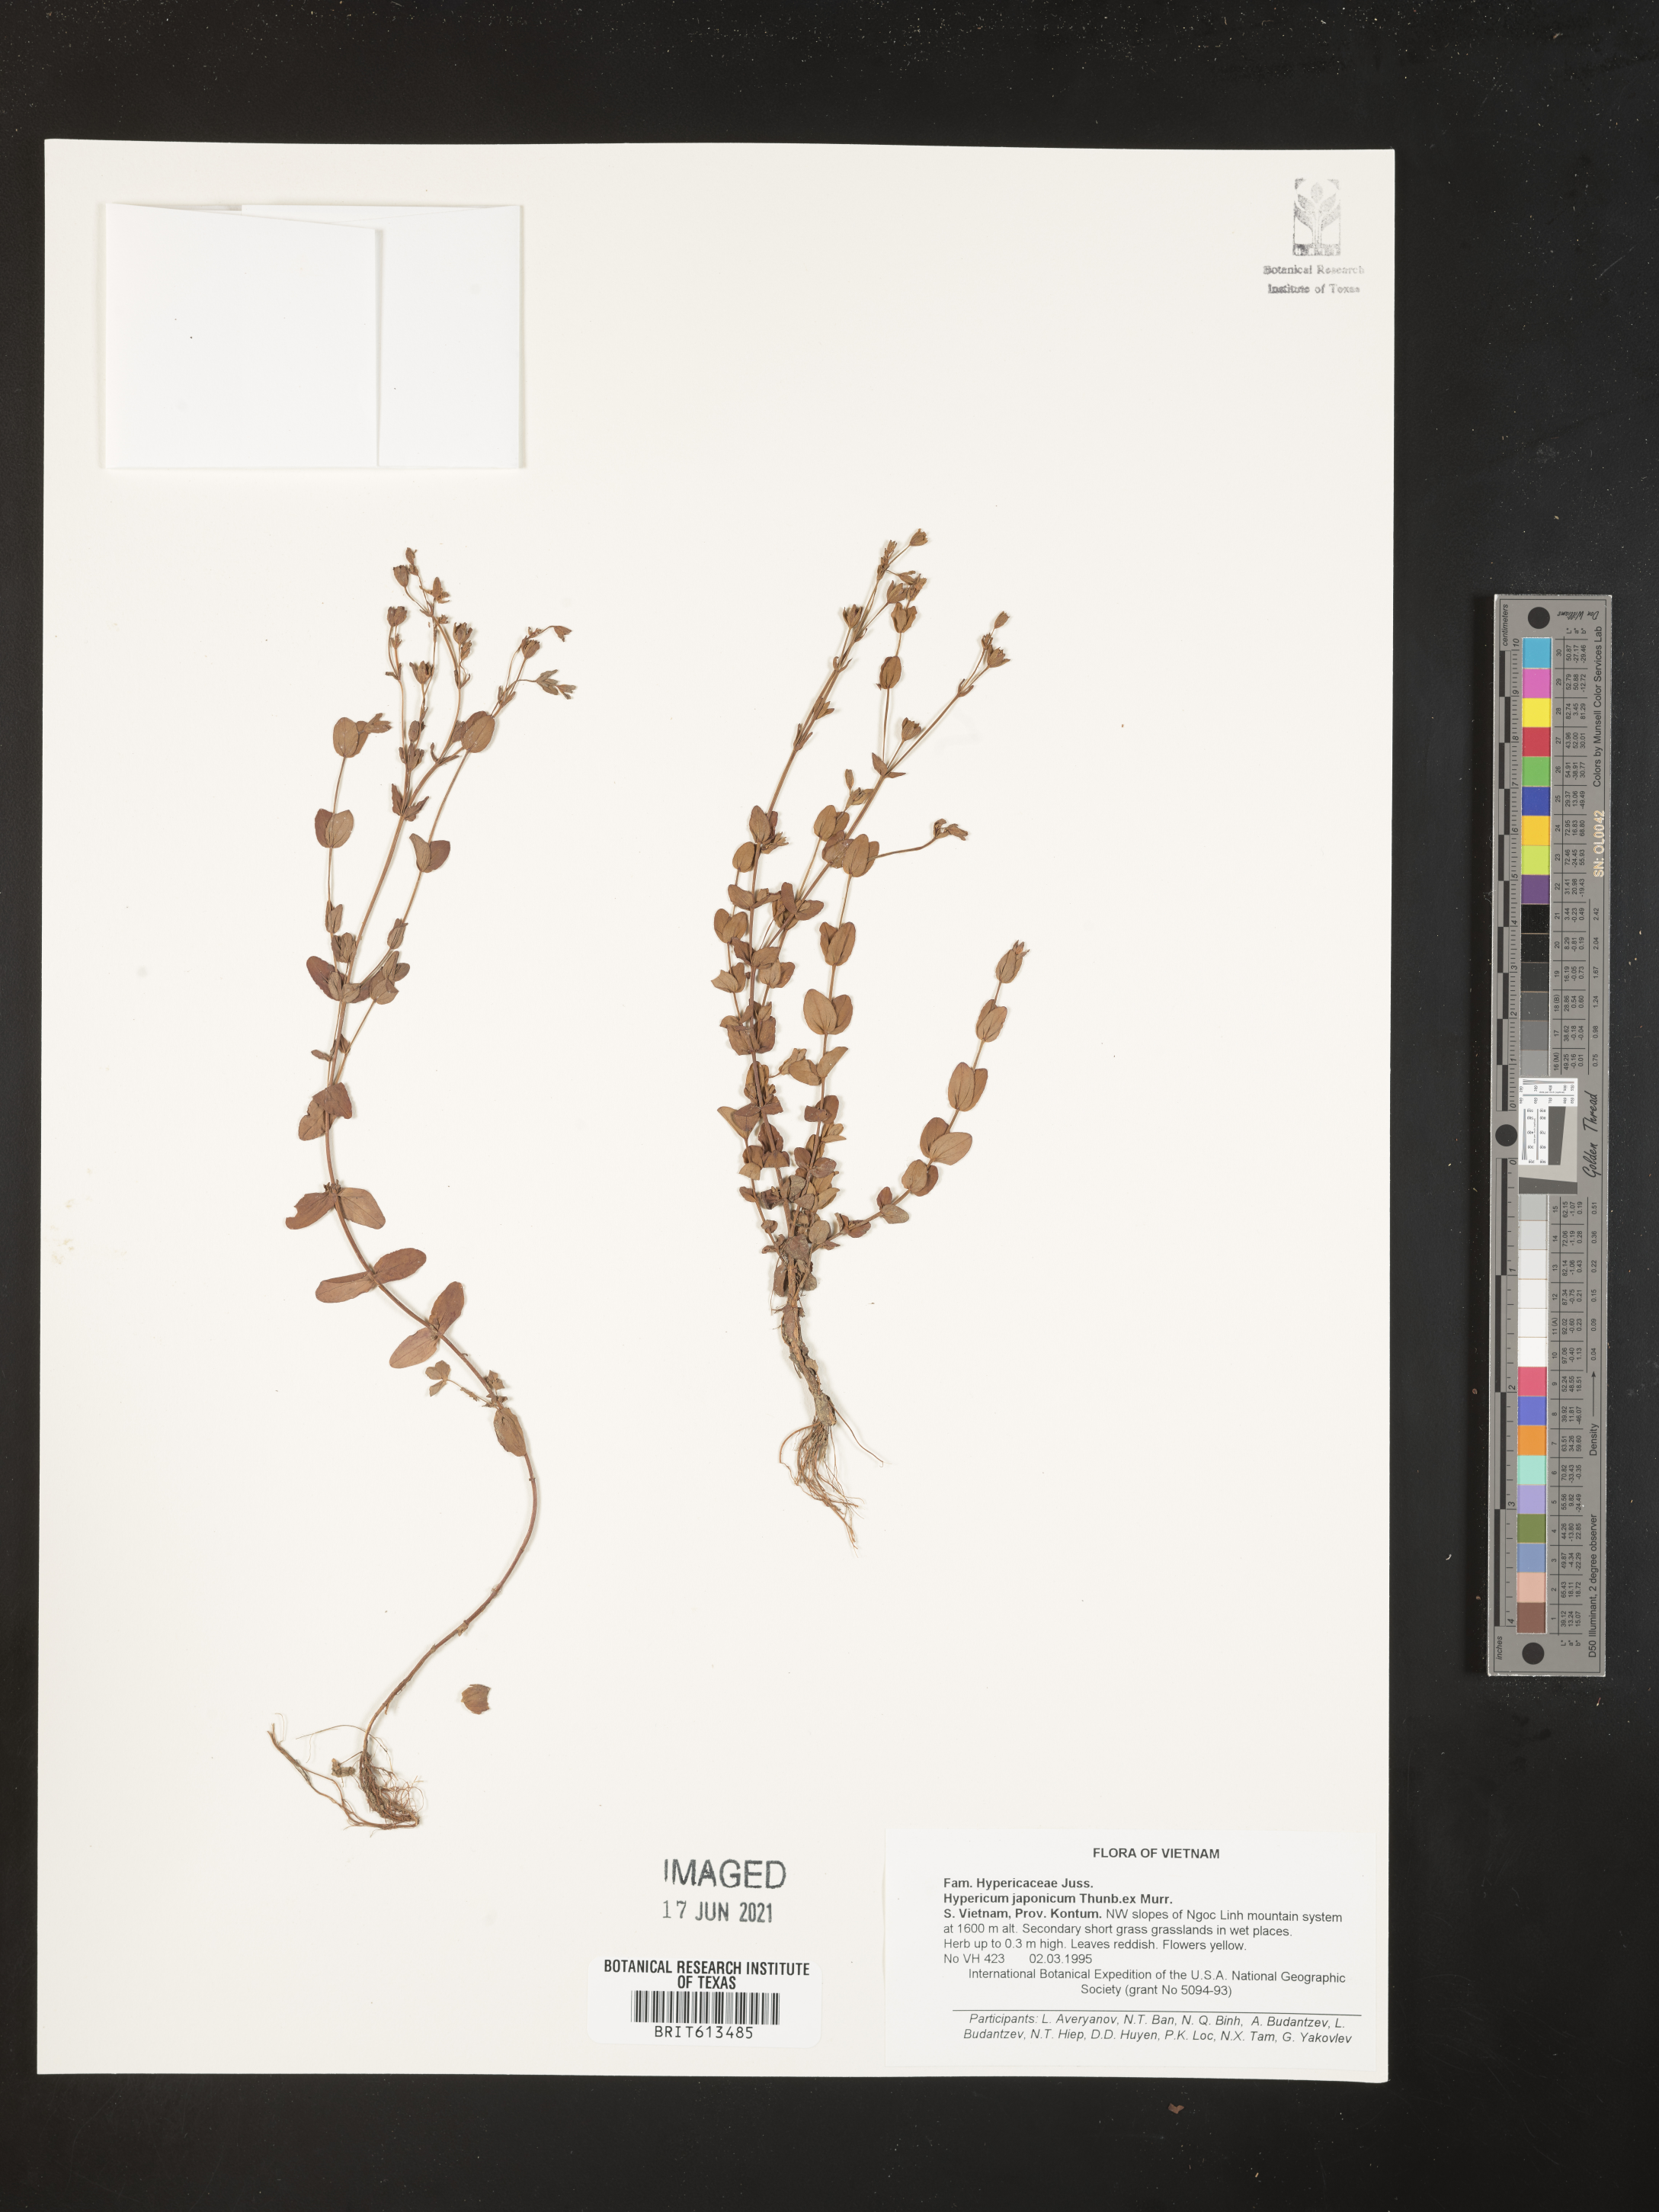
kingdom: Plantae
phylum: Tracheophyta
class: Magnoliopsida
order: Malpighiales
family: Hypericaceae
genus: Hypericum
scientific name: Hypericum japonicum
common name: Matted st. john's-wort
